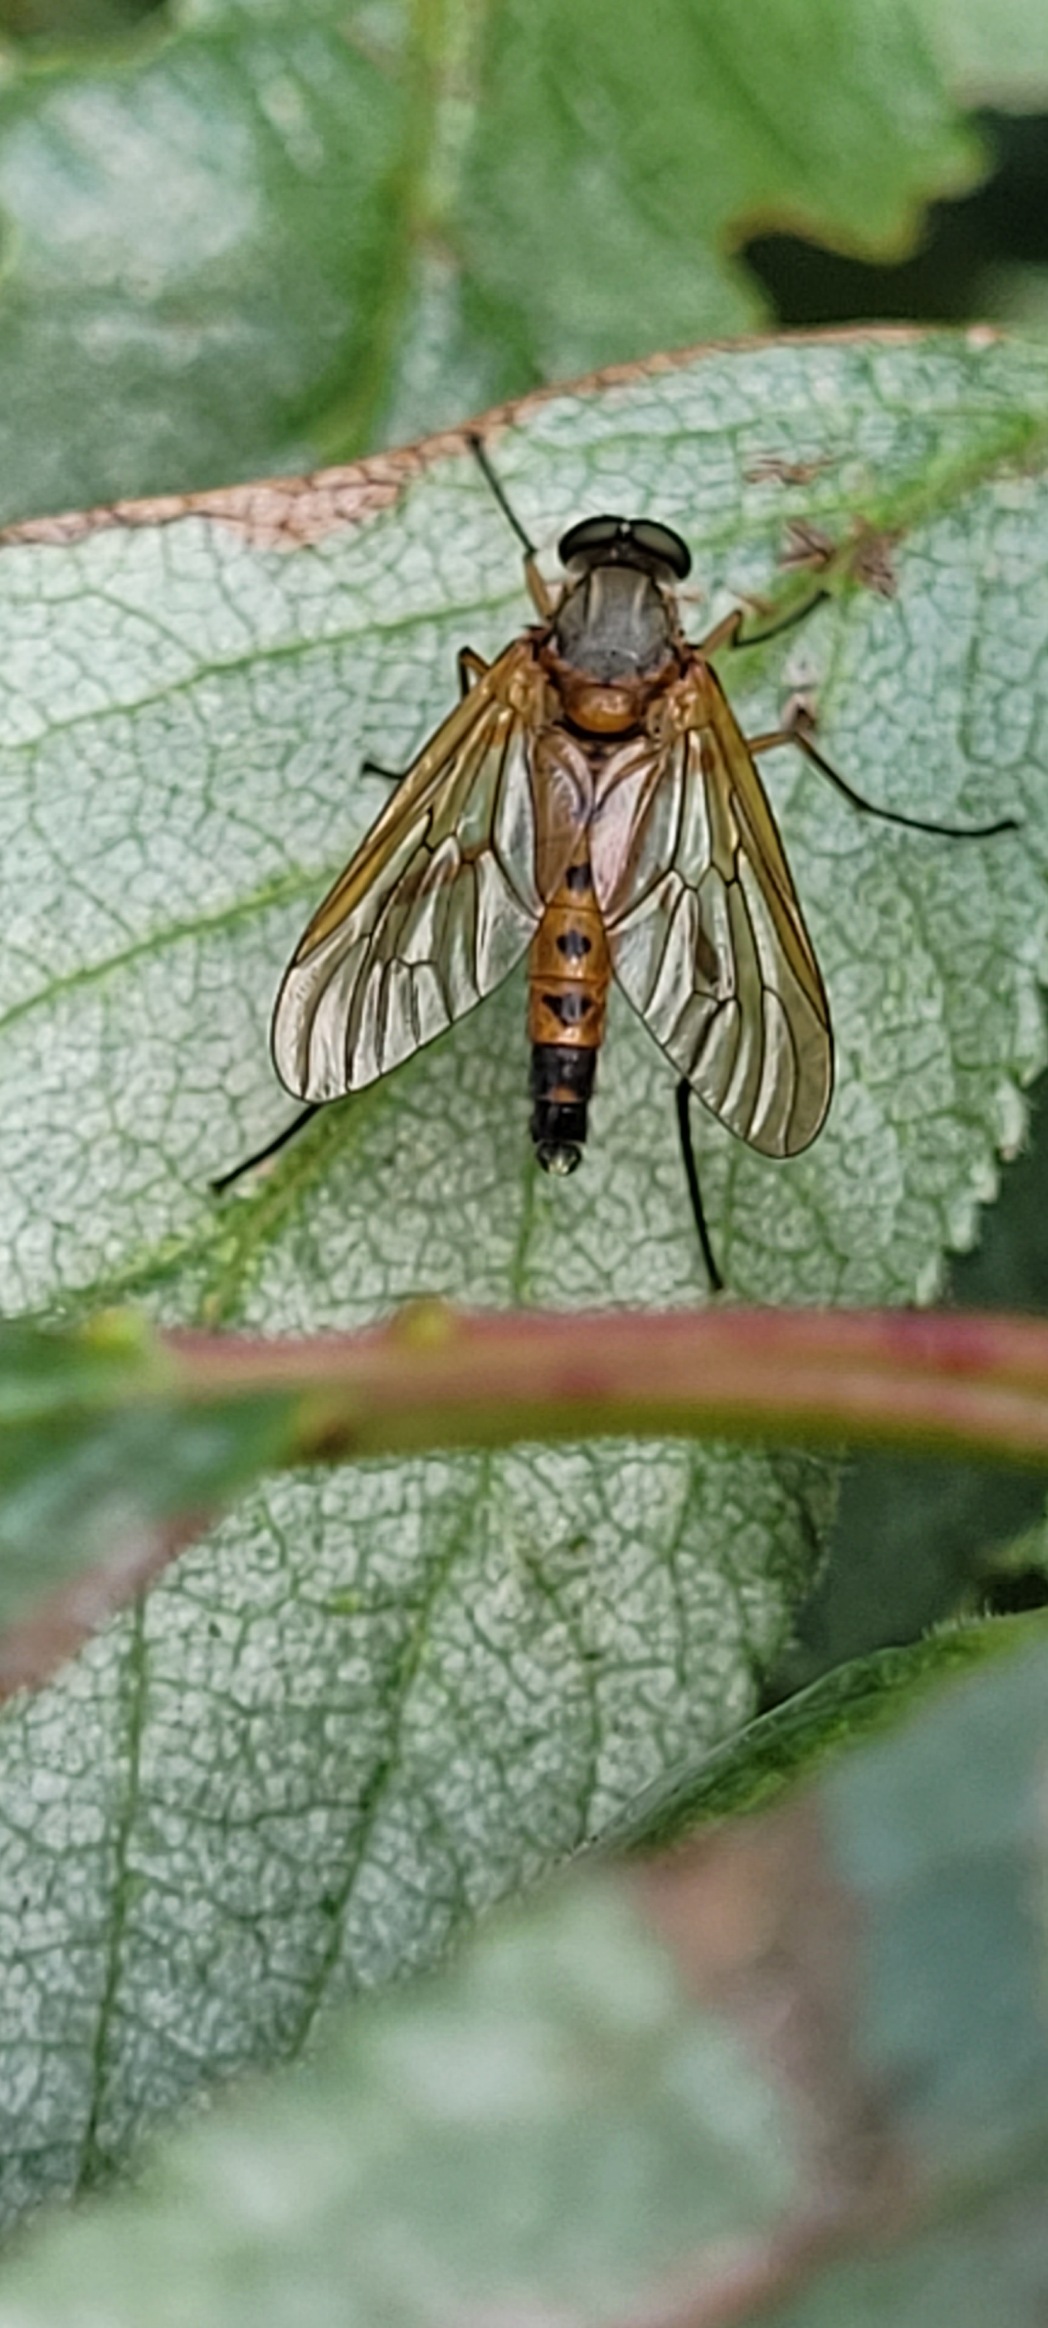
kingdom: Animalia
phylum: Arthropoda
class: Insecta
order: Diptera
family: Rhagionidae
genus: Rhagio
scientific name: Rhagio tringaria
